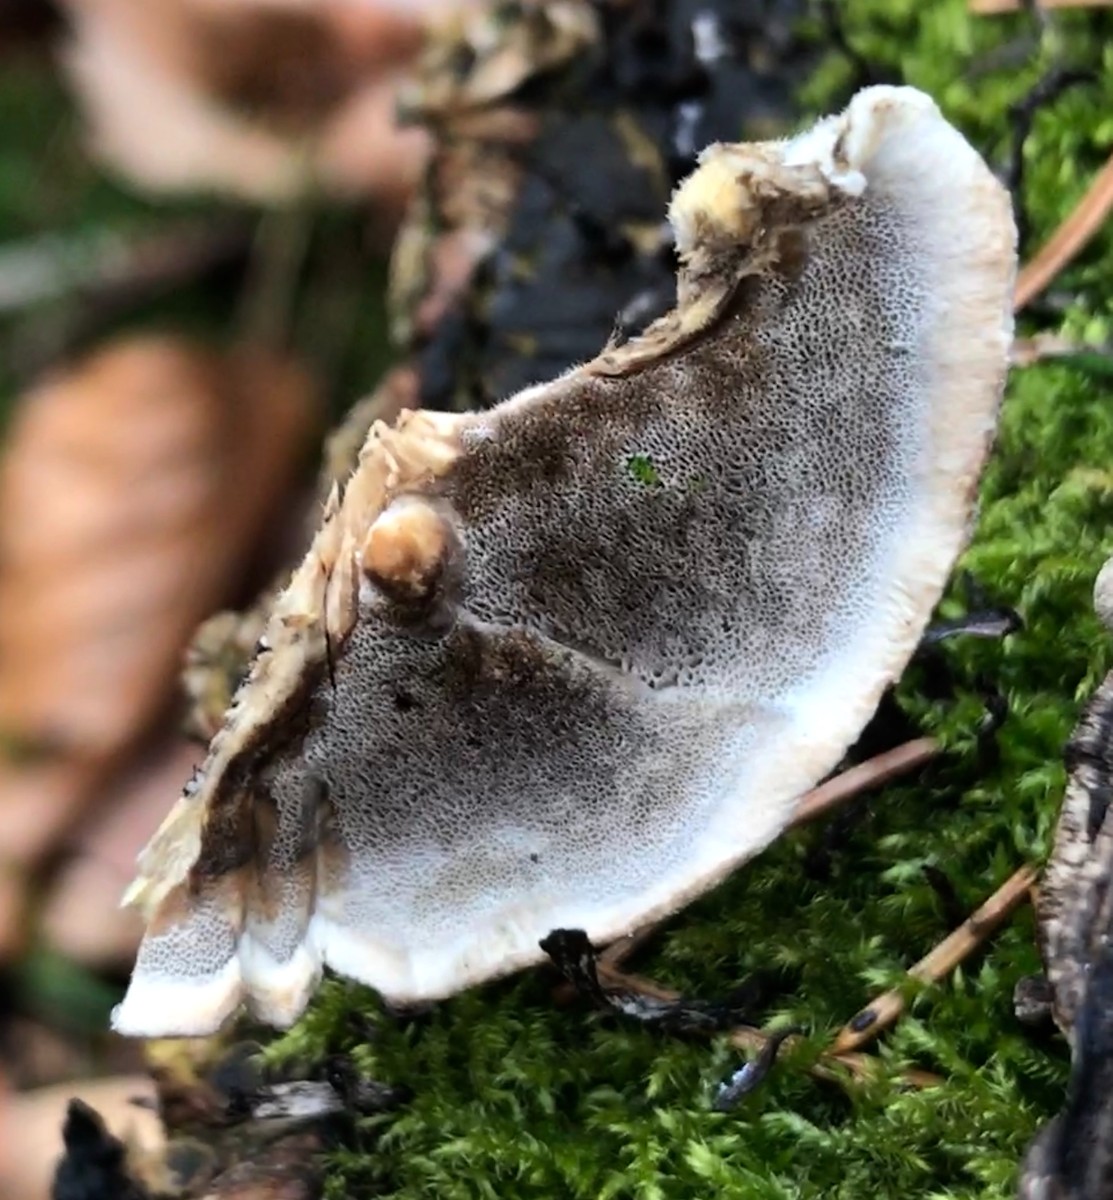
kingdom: Fungi
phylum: Basidiomycota
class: Agaricomycetes
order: Polyporales
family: Phanerochaetaceae
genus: Bjerkandera
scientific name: Bjerkandera adusta
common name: sveden sodporesvamp
